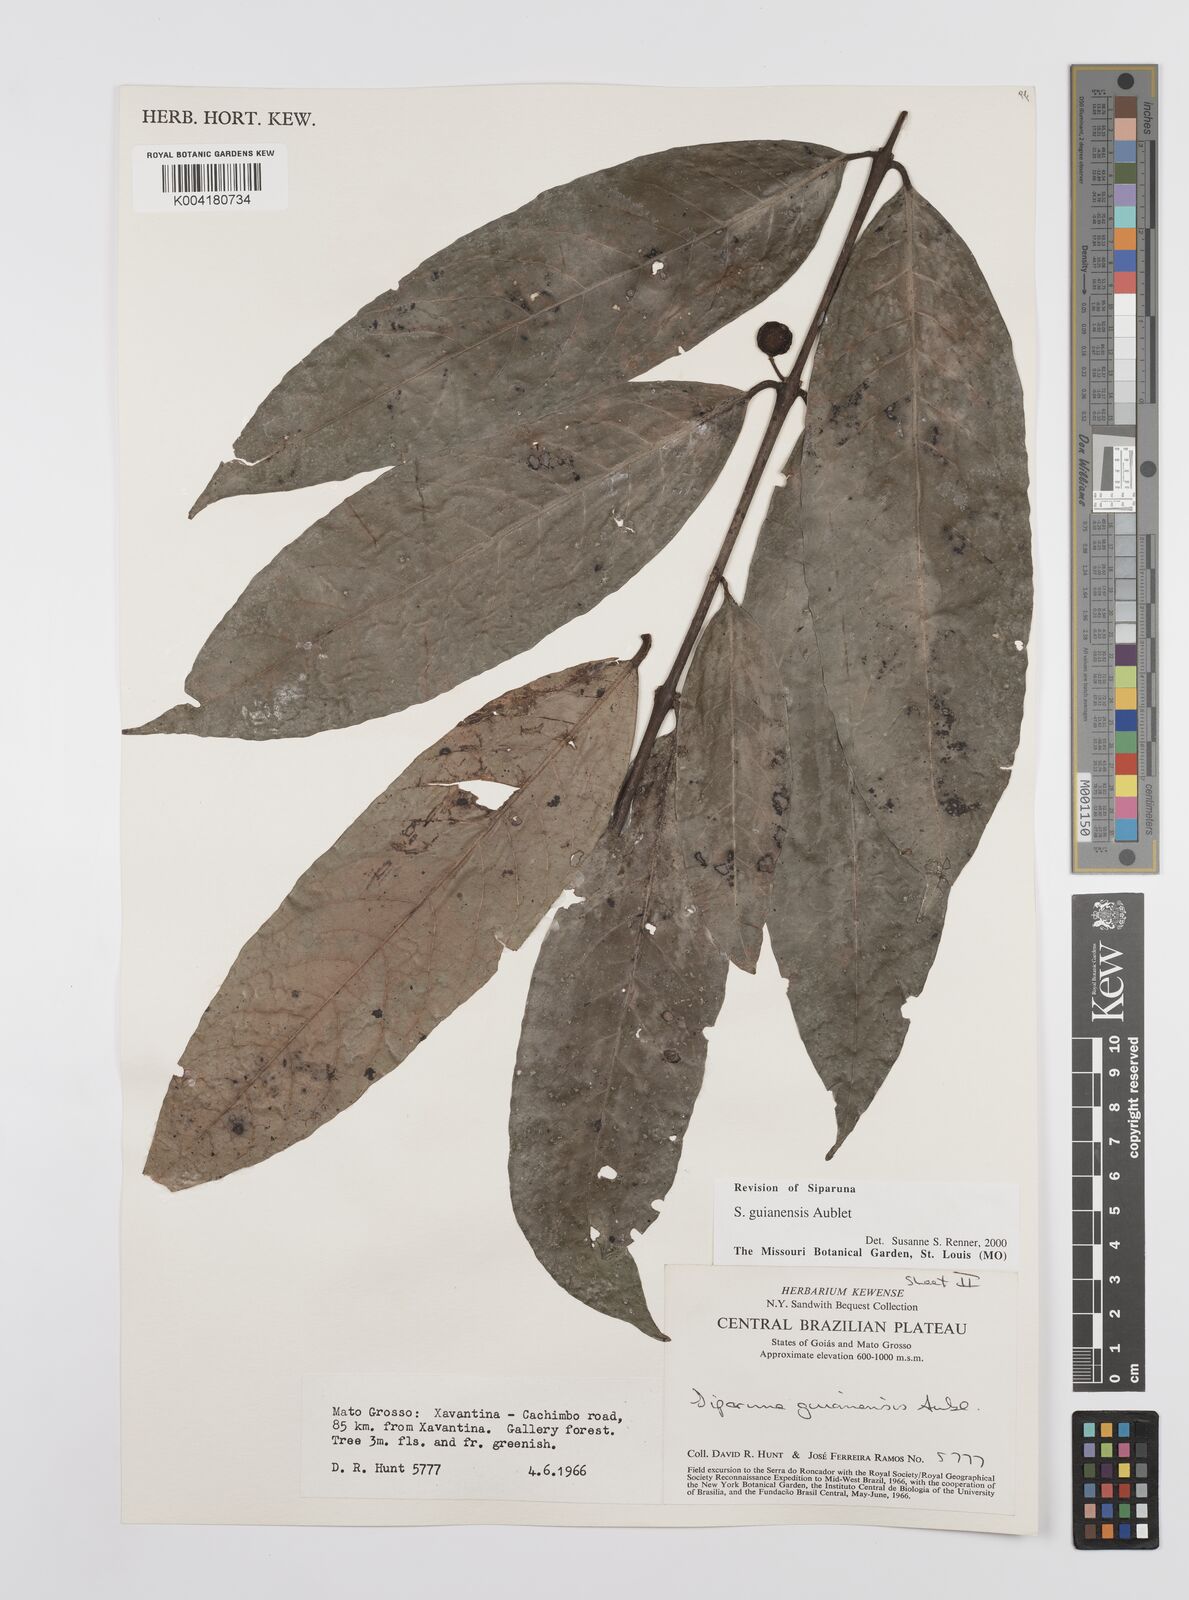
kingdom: Plantae
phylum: Tracheophyta
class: Magnoliopsida
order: Laurales
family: Siparunaceae
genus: Siparuna
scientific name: Siparuna guianensis
